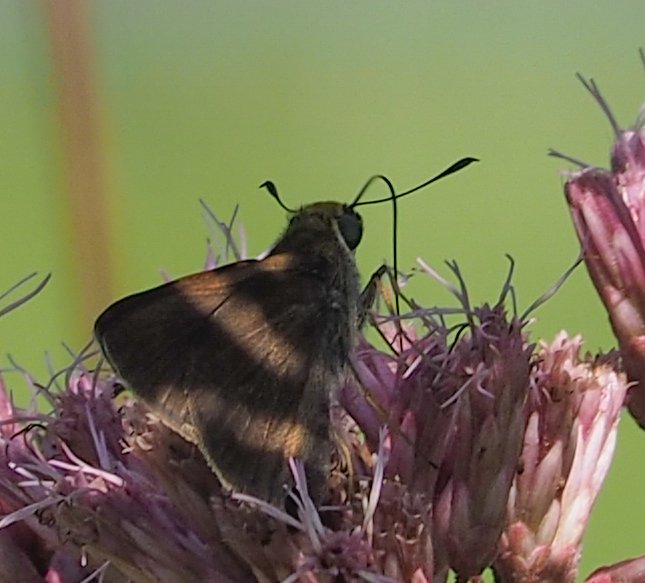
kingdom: Animalia
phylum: Arthropoda
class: Insecta
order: Lepidoptera
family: Hesperiidae
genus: Euphyes
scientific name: Euphyes vestris
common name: Dun Skipper
